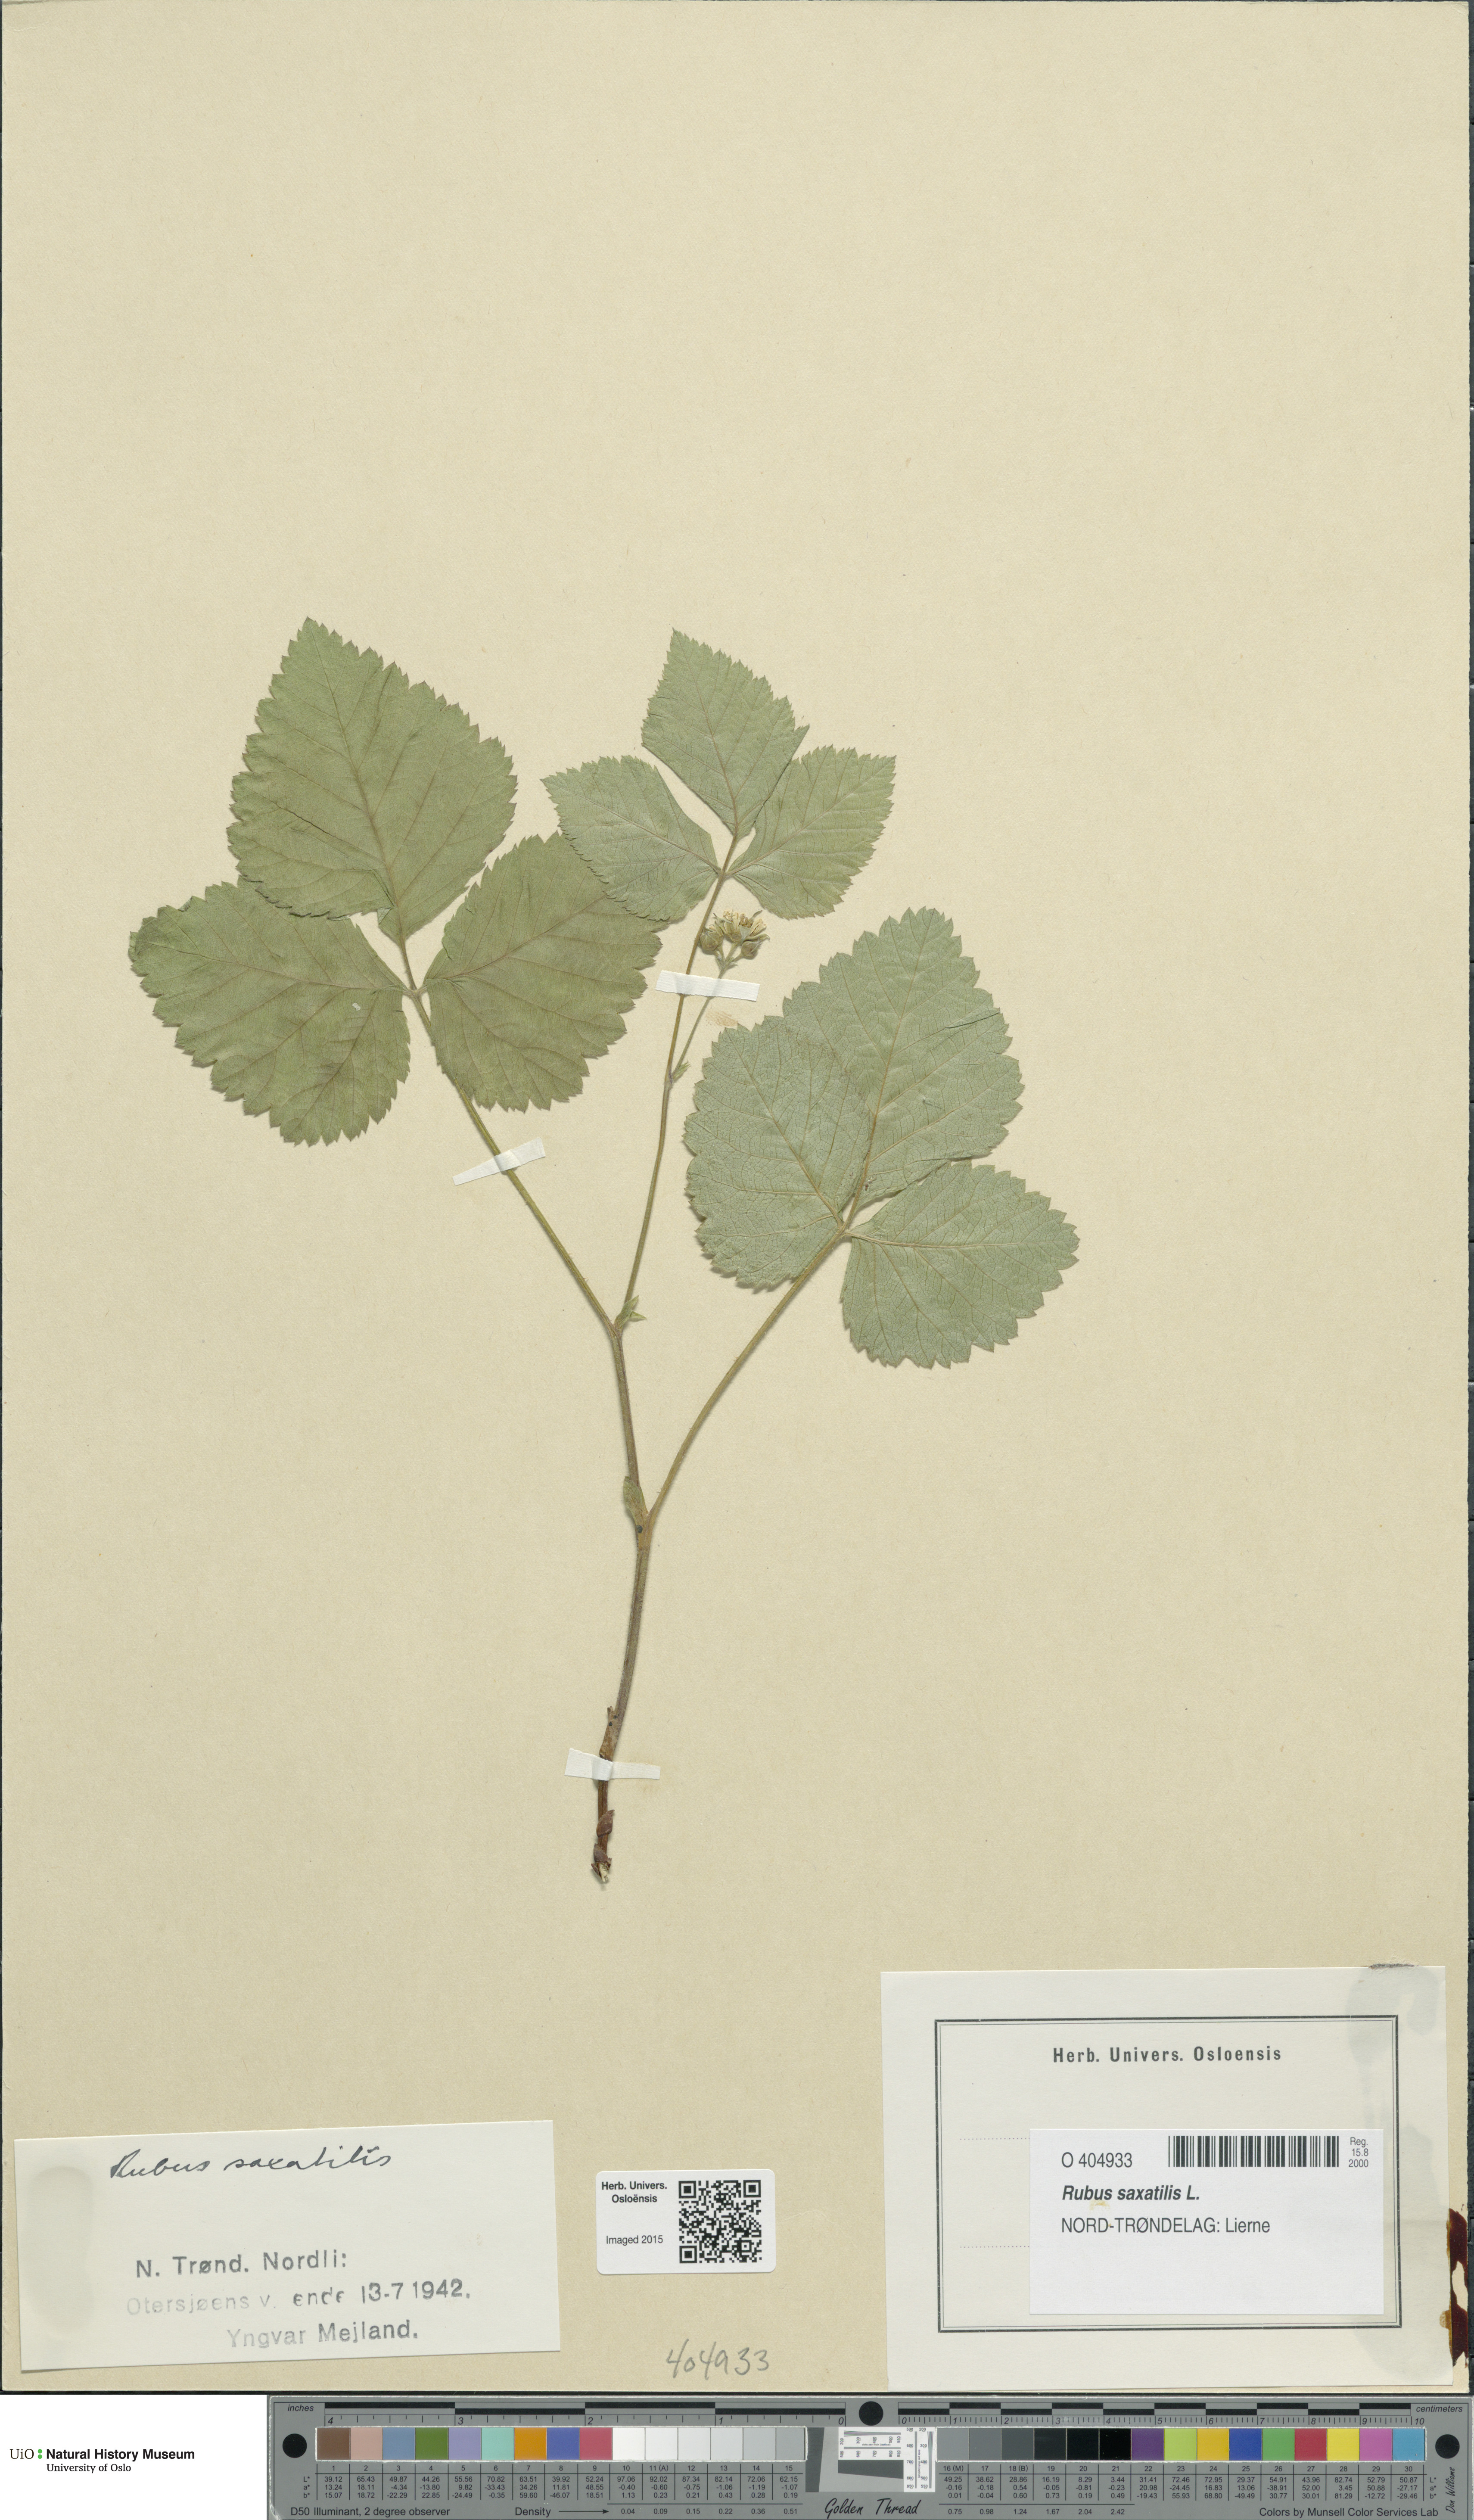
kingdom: Plantae
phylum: Tracheophyta
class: Magnoliopsida
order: Rosales
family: Rosaceae
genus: Rubus
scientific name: Rubus saxatilis
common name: Stone bramble
